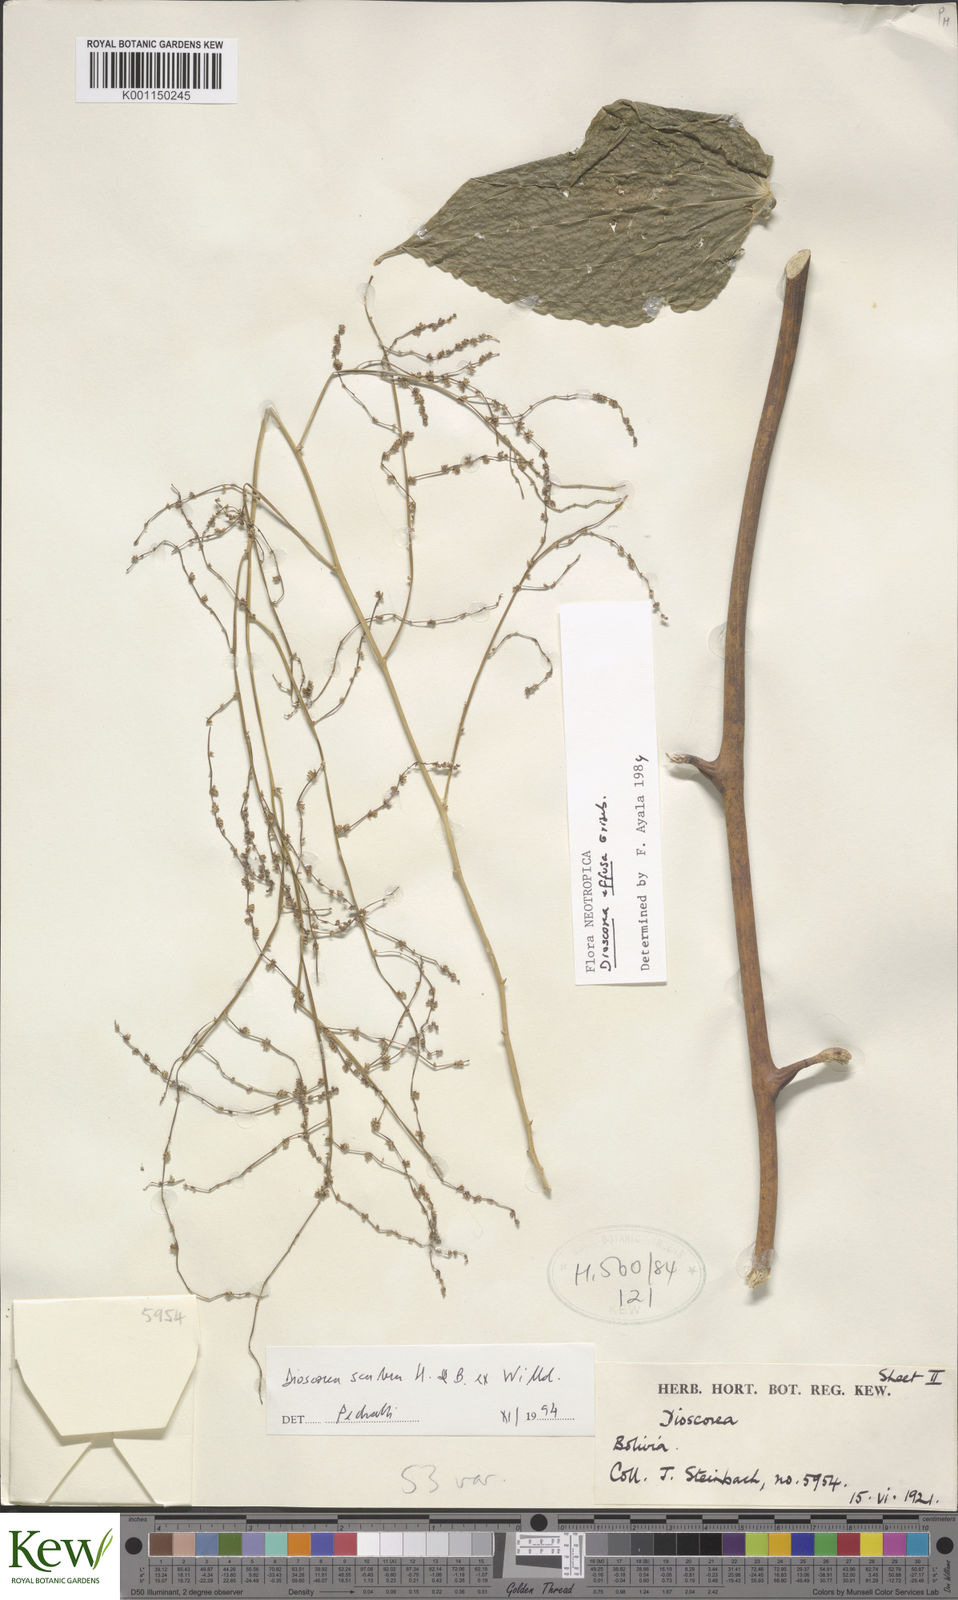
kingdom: Plantae
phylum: Tracheophyta
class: Liliopsida
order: Dioscoreales
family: Dioscoreaceae
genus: Dioscorea
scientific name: Dioscorea scabra
